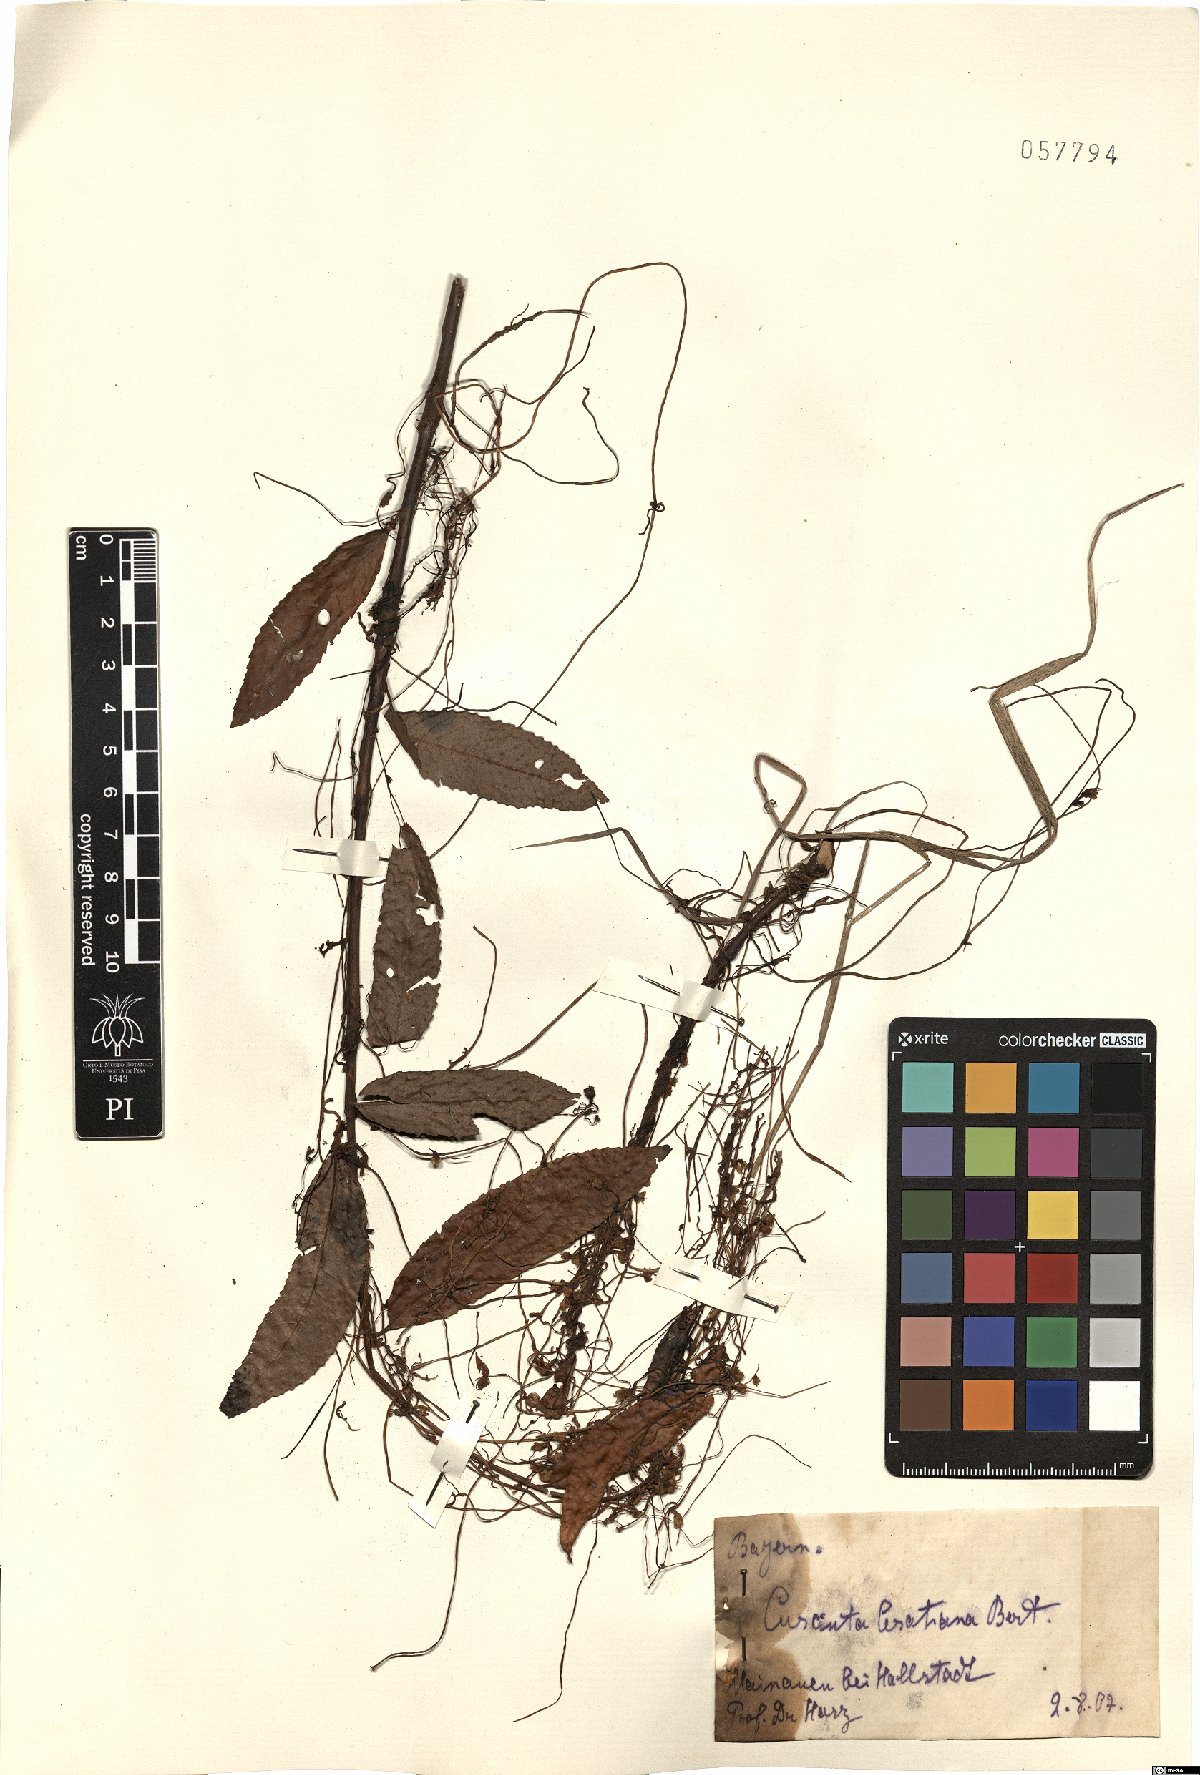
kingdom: Plantae
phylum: Tracheophyta
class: Magnoliopsida
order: Solanales
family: Convolvulaceae
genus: Cuscuta
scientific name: Cuscuta australis
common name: Australian dodder
